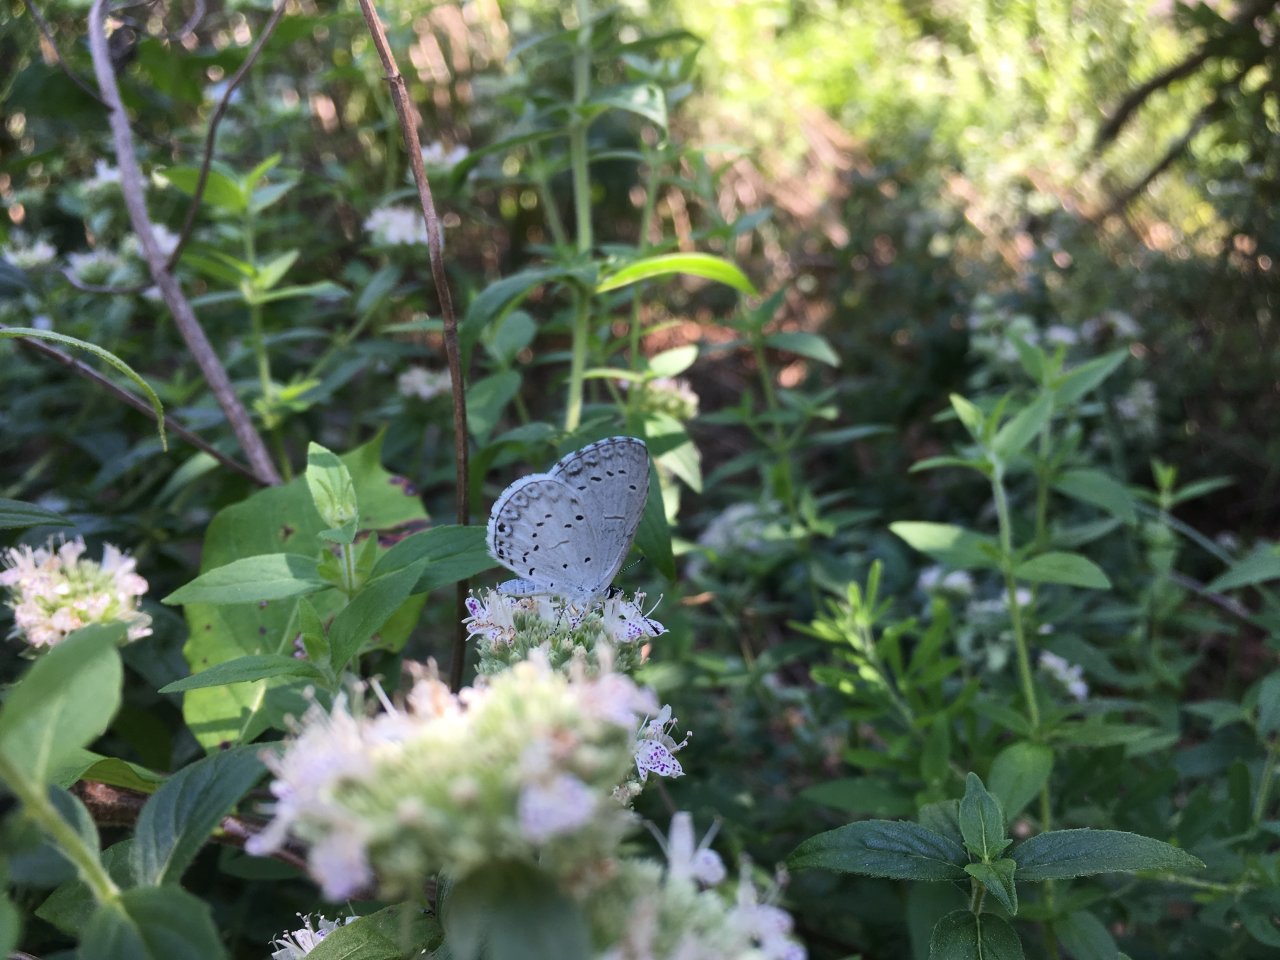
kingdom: Animalia
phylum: Arthropoda
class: Insecta
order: Lepidoptera
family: Lycaenidae
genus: Cyaniris
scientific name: Cyaniris neglecta
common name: Summer Azure
